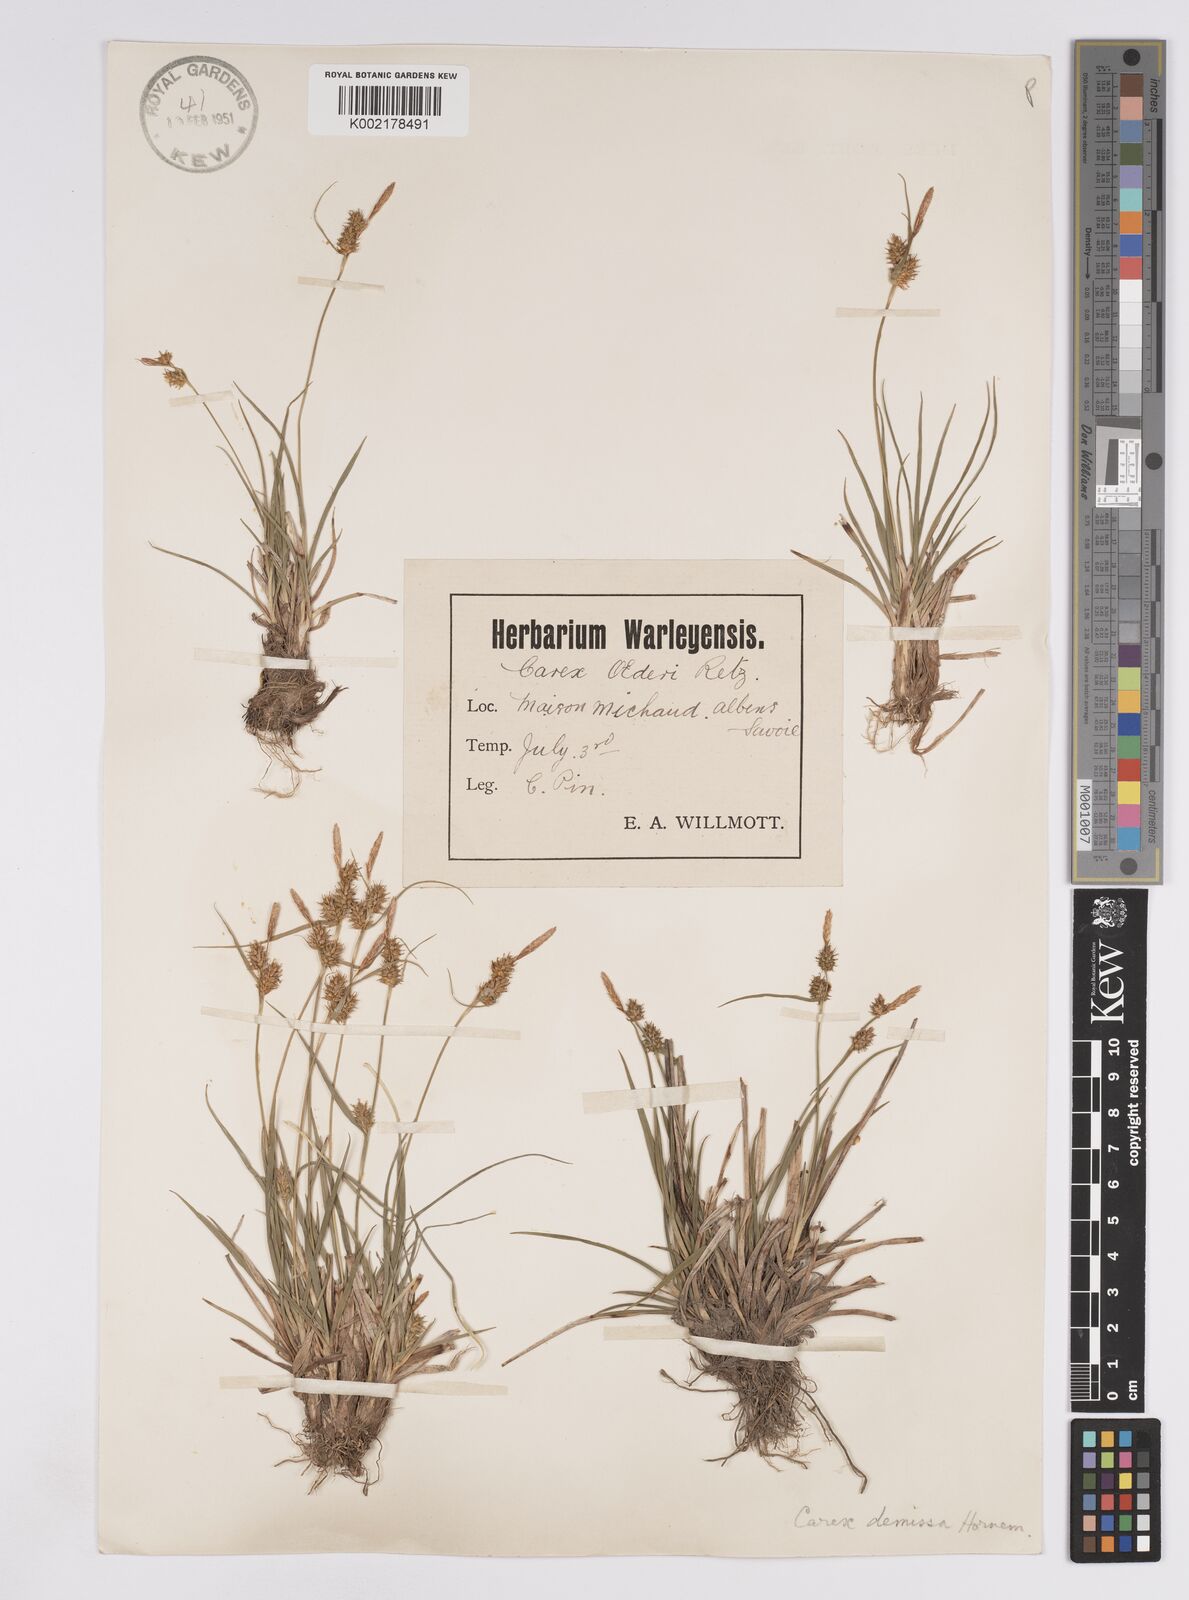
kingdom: Plantae
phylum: Tracheophyta
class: Liliopsida
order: Poales
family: Cyperaceae
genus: Carex
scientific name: Carex demissa
